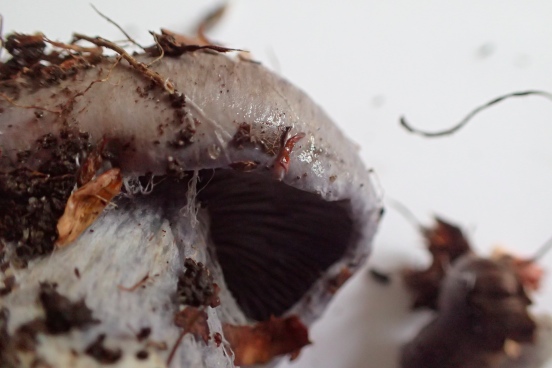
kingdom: Fungi
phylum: Basidiomycota
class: Agaricomycetes
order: Agaricales
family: Cortinariaceae
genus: Cortinarius
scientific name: Cortinarius caerulescens
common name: blåkødet slørhat
